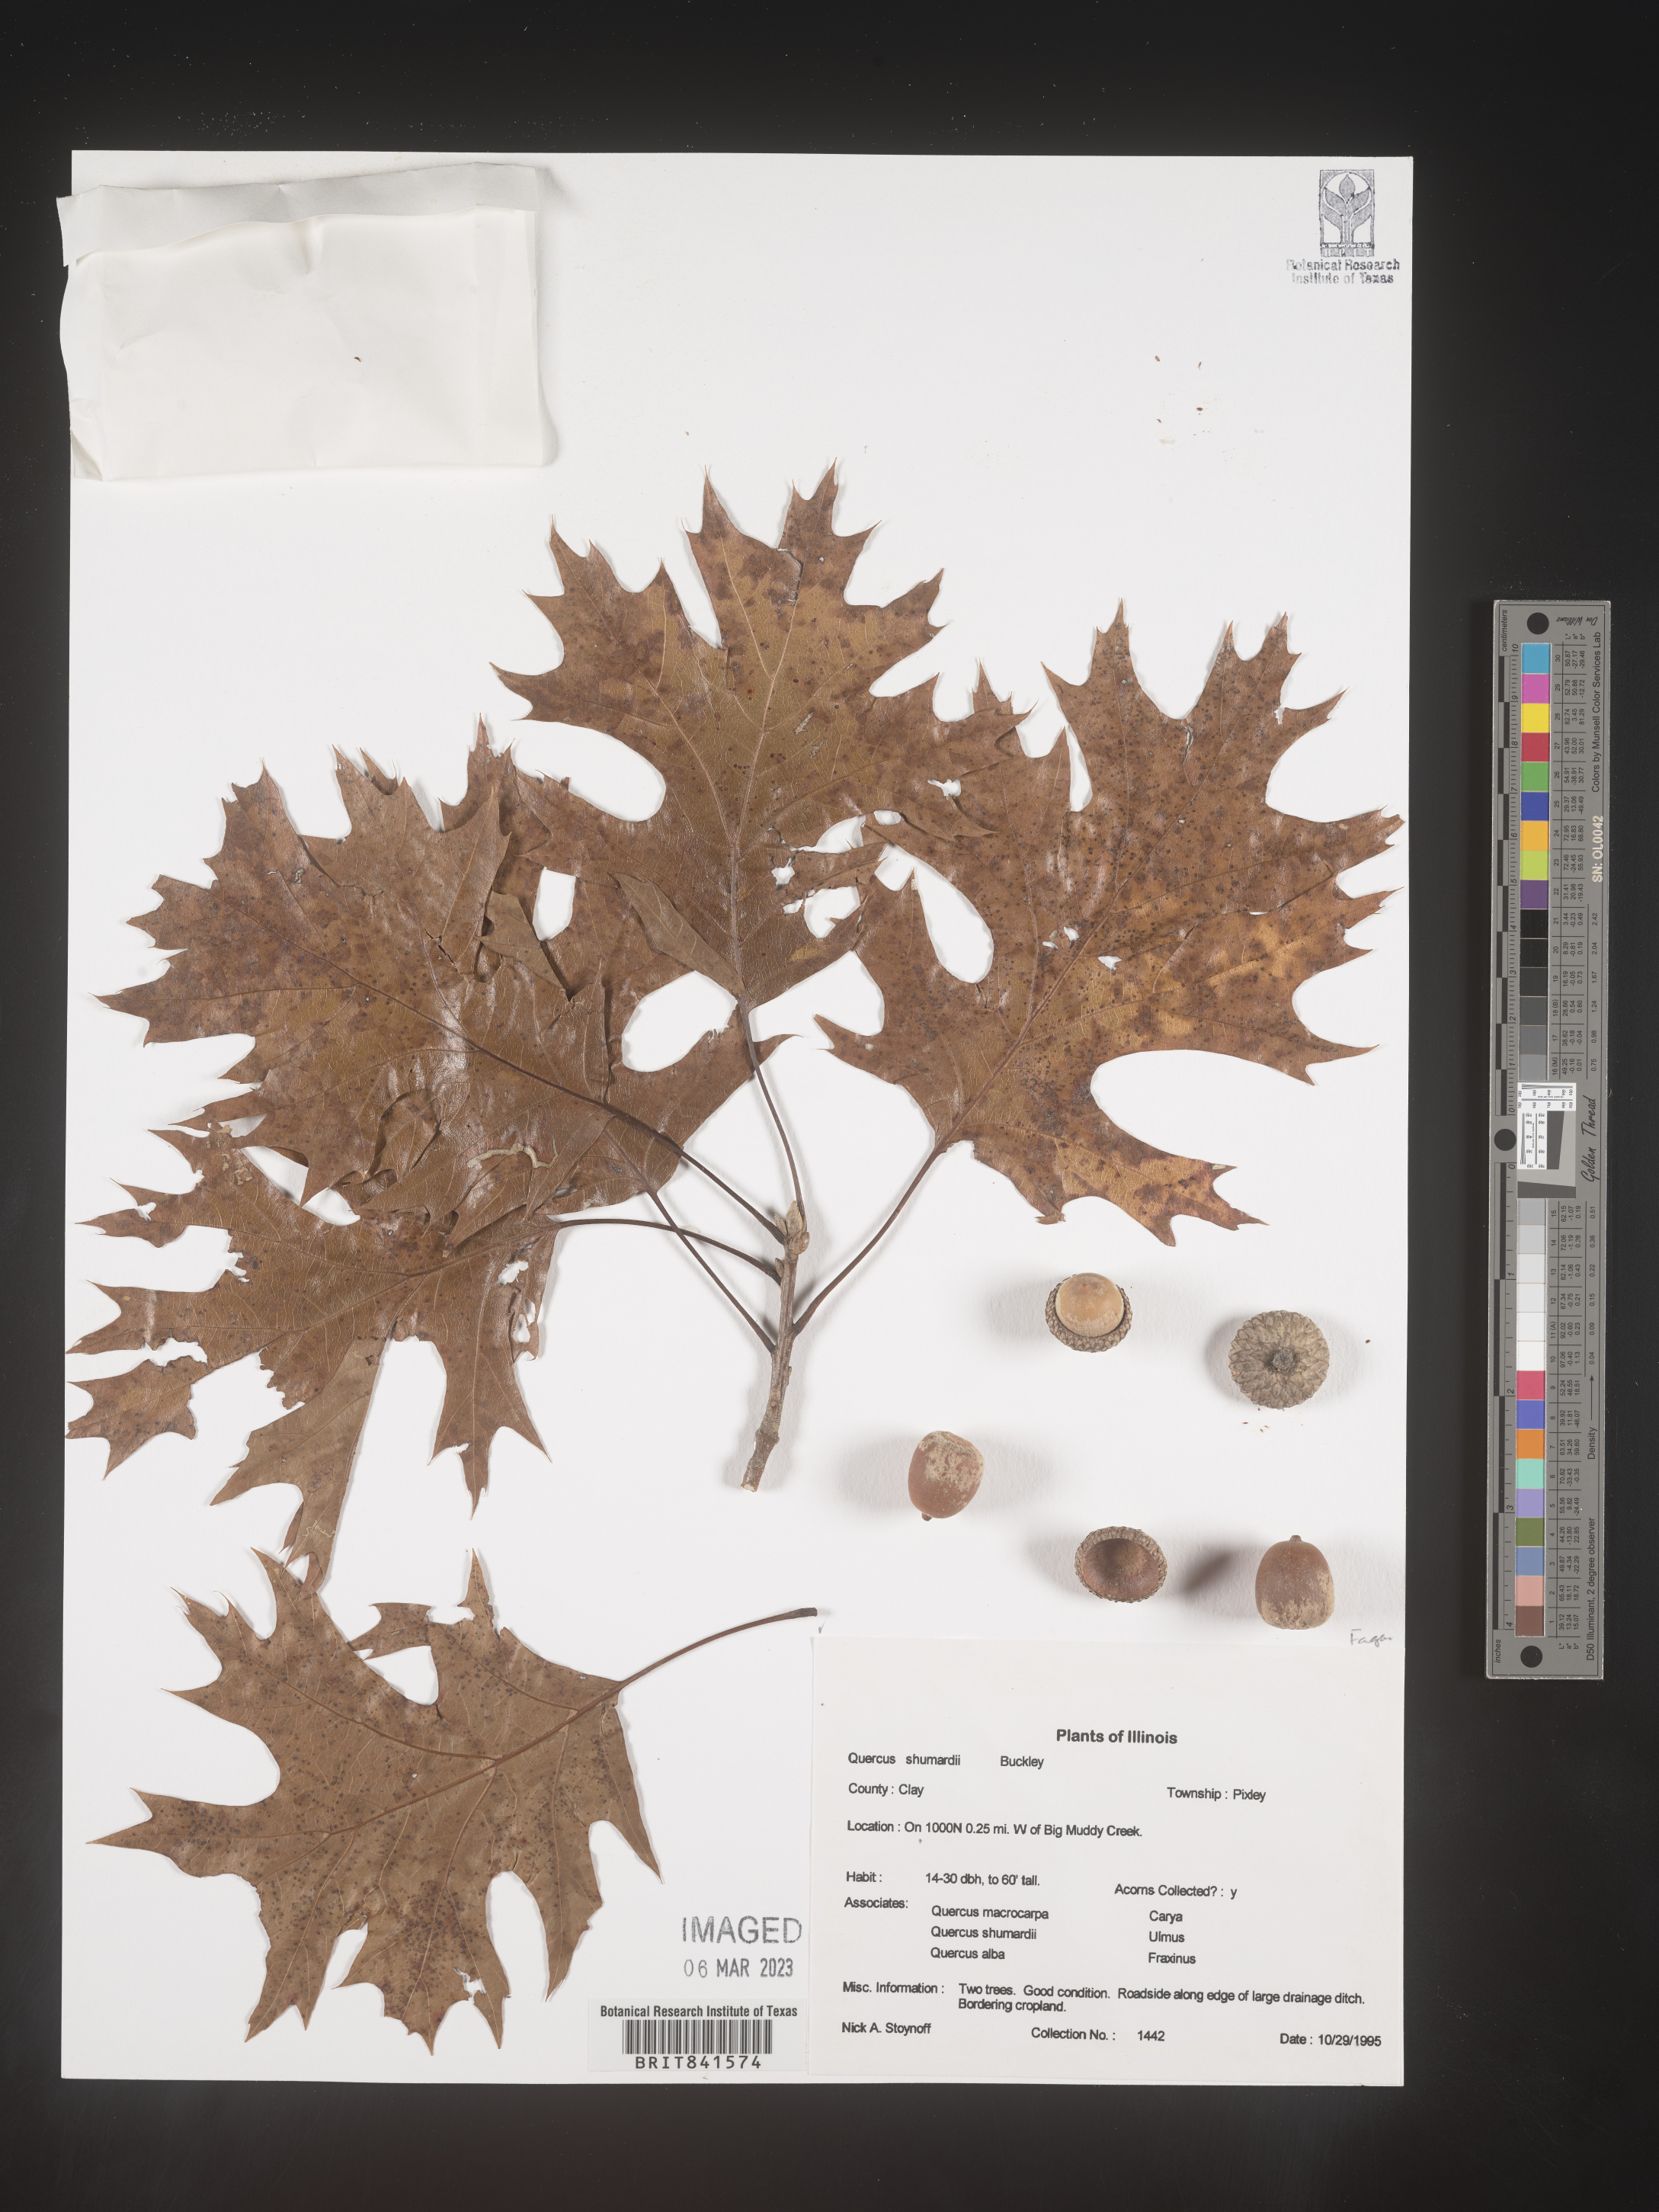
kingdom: Plantae
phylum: Tracheophyta
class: Magnoliopsida
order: Fagales
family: Fagaceae
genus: Quercus
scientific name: Quercus shumardii
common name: Shumard oak
